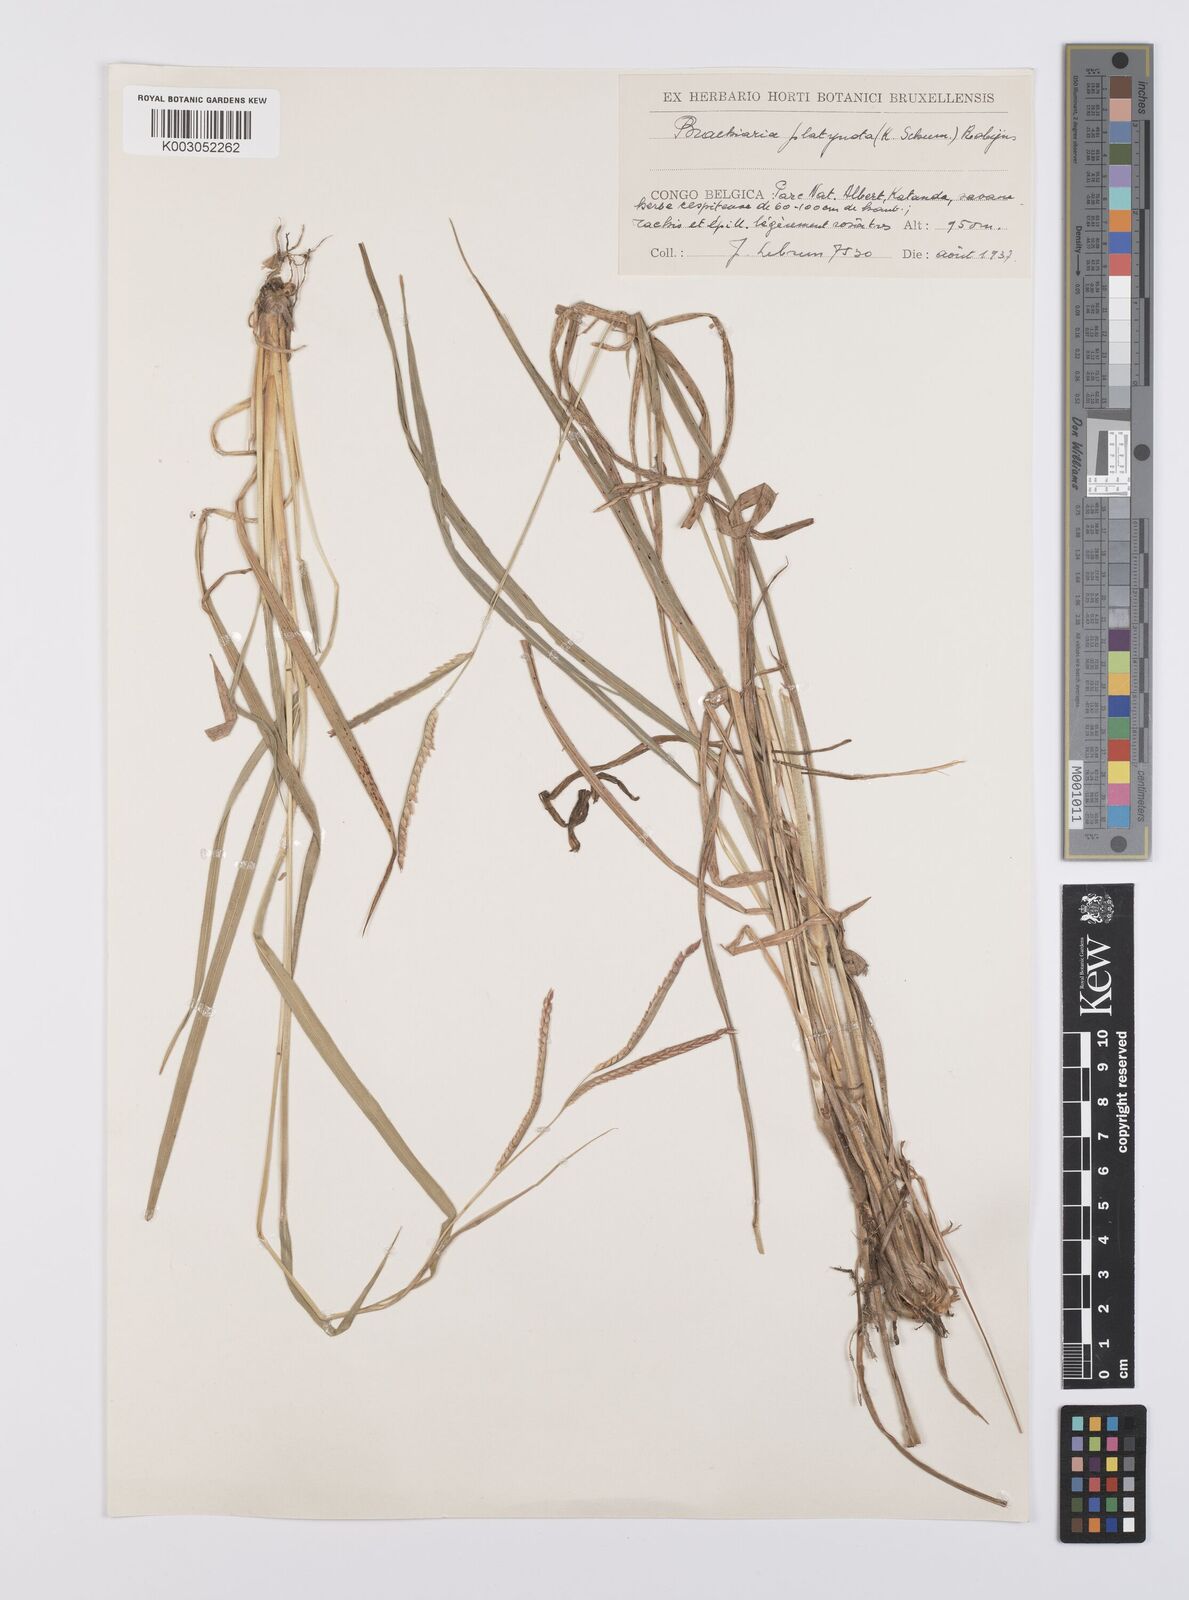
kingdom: Plantae
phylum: Tracheophyta
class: Liliopsida
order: Poales
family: Poaceae
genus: Urochloa
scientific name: Urochloa platynota
